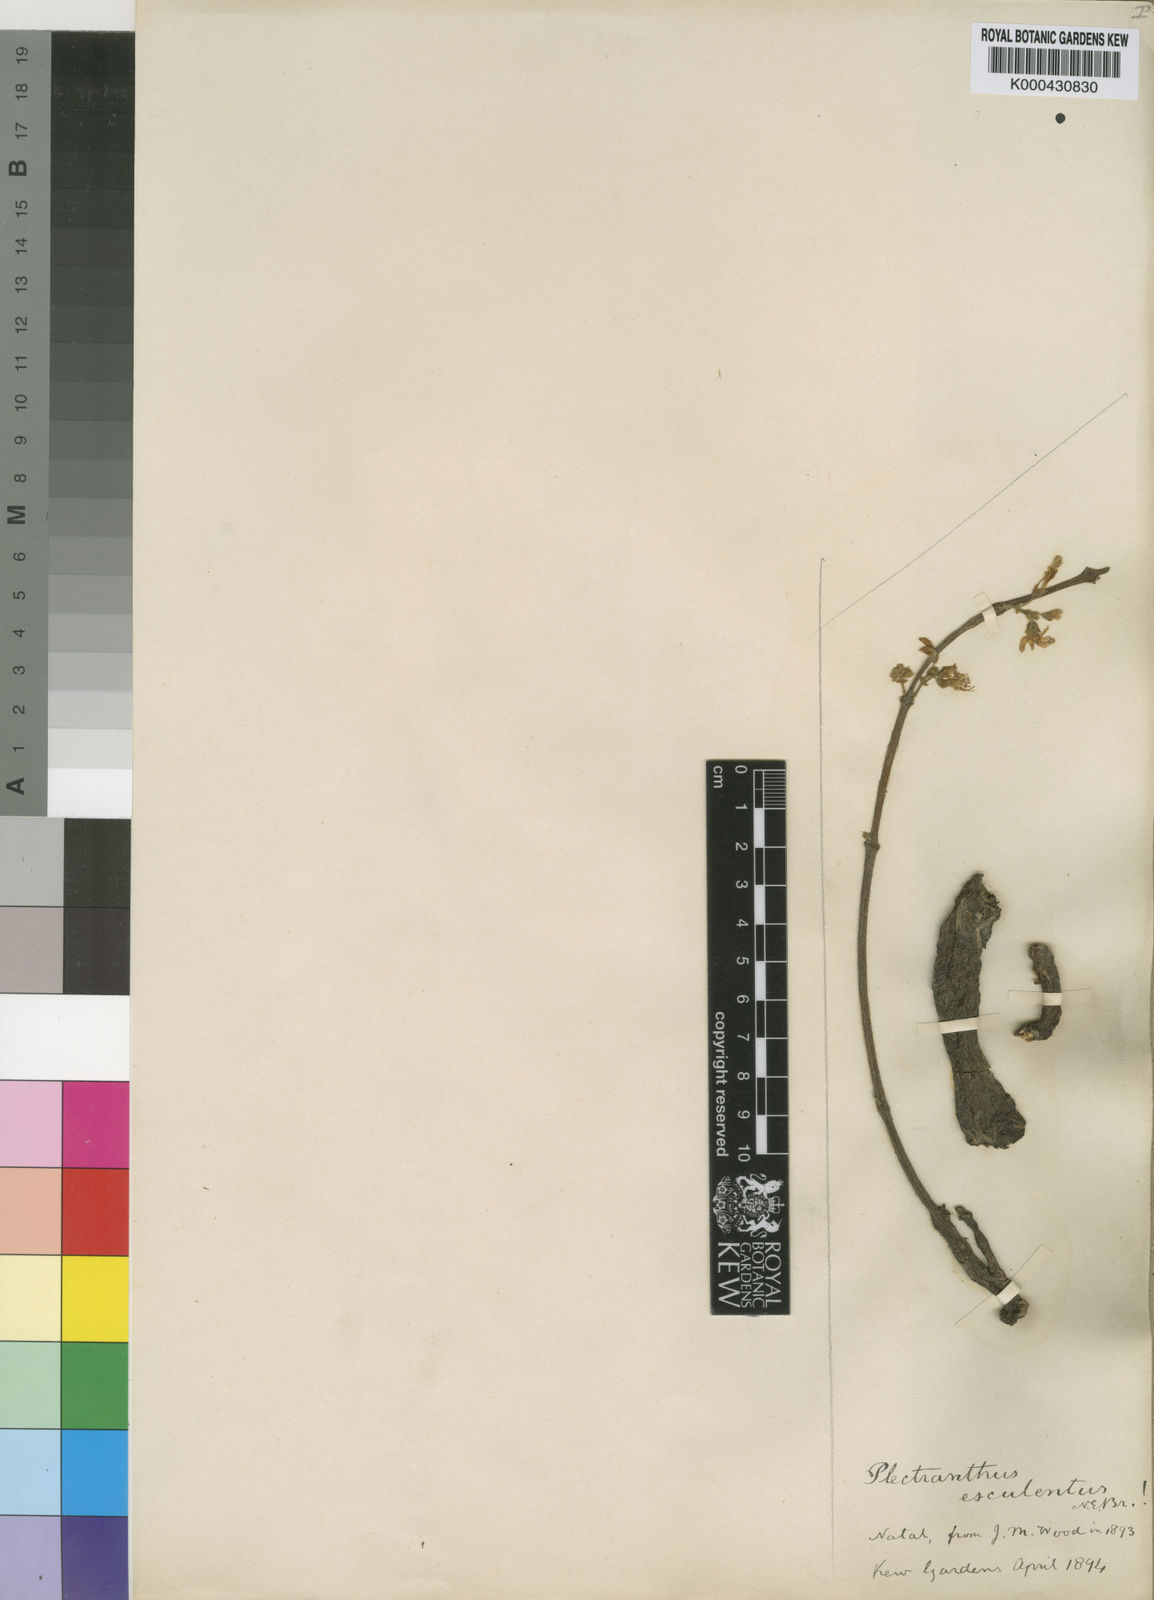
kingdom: Plantae
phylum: Tracheophyta
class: Magnoliopsida
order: Lamiales
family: Lamiaceae
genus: Coleus
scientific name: Coleus esculentus
